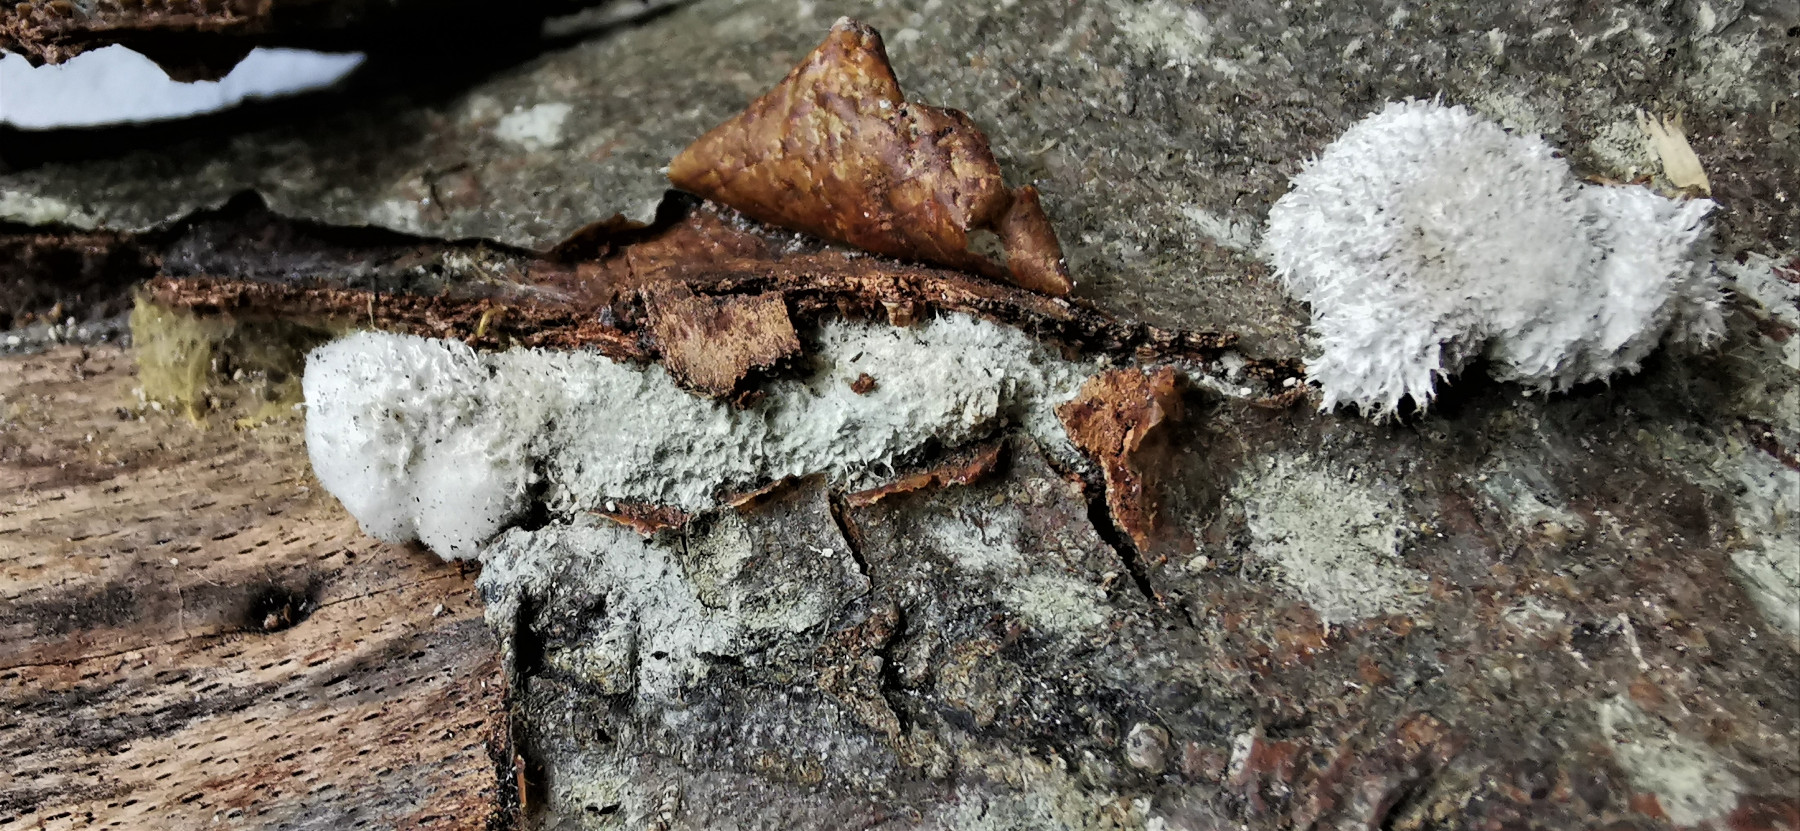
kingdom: Fungi
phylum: Basidiomycota
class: Agaricomycetes
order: Agaricales
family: Schizophyllaceae
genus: Schizophyllum
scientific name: Schizophyllum commune
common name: kløvblad
